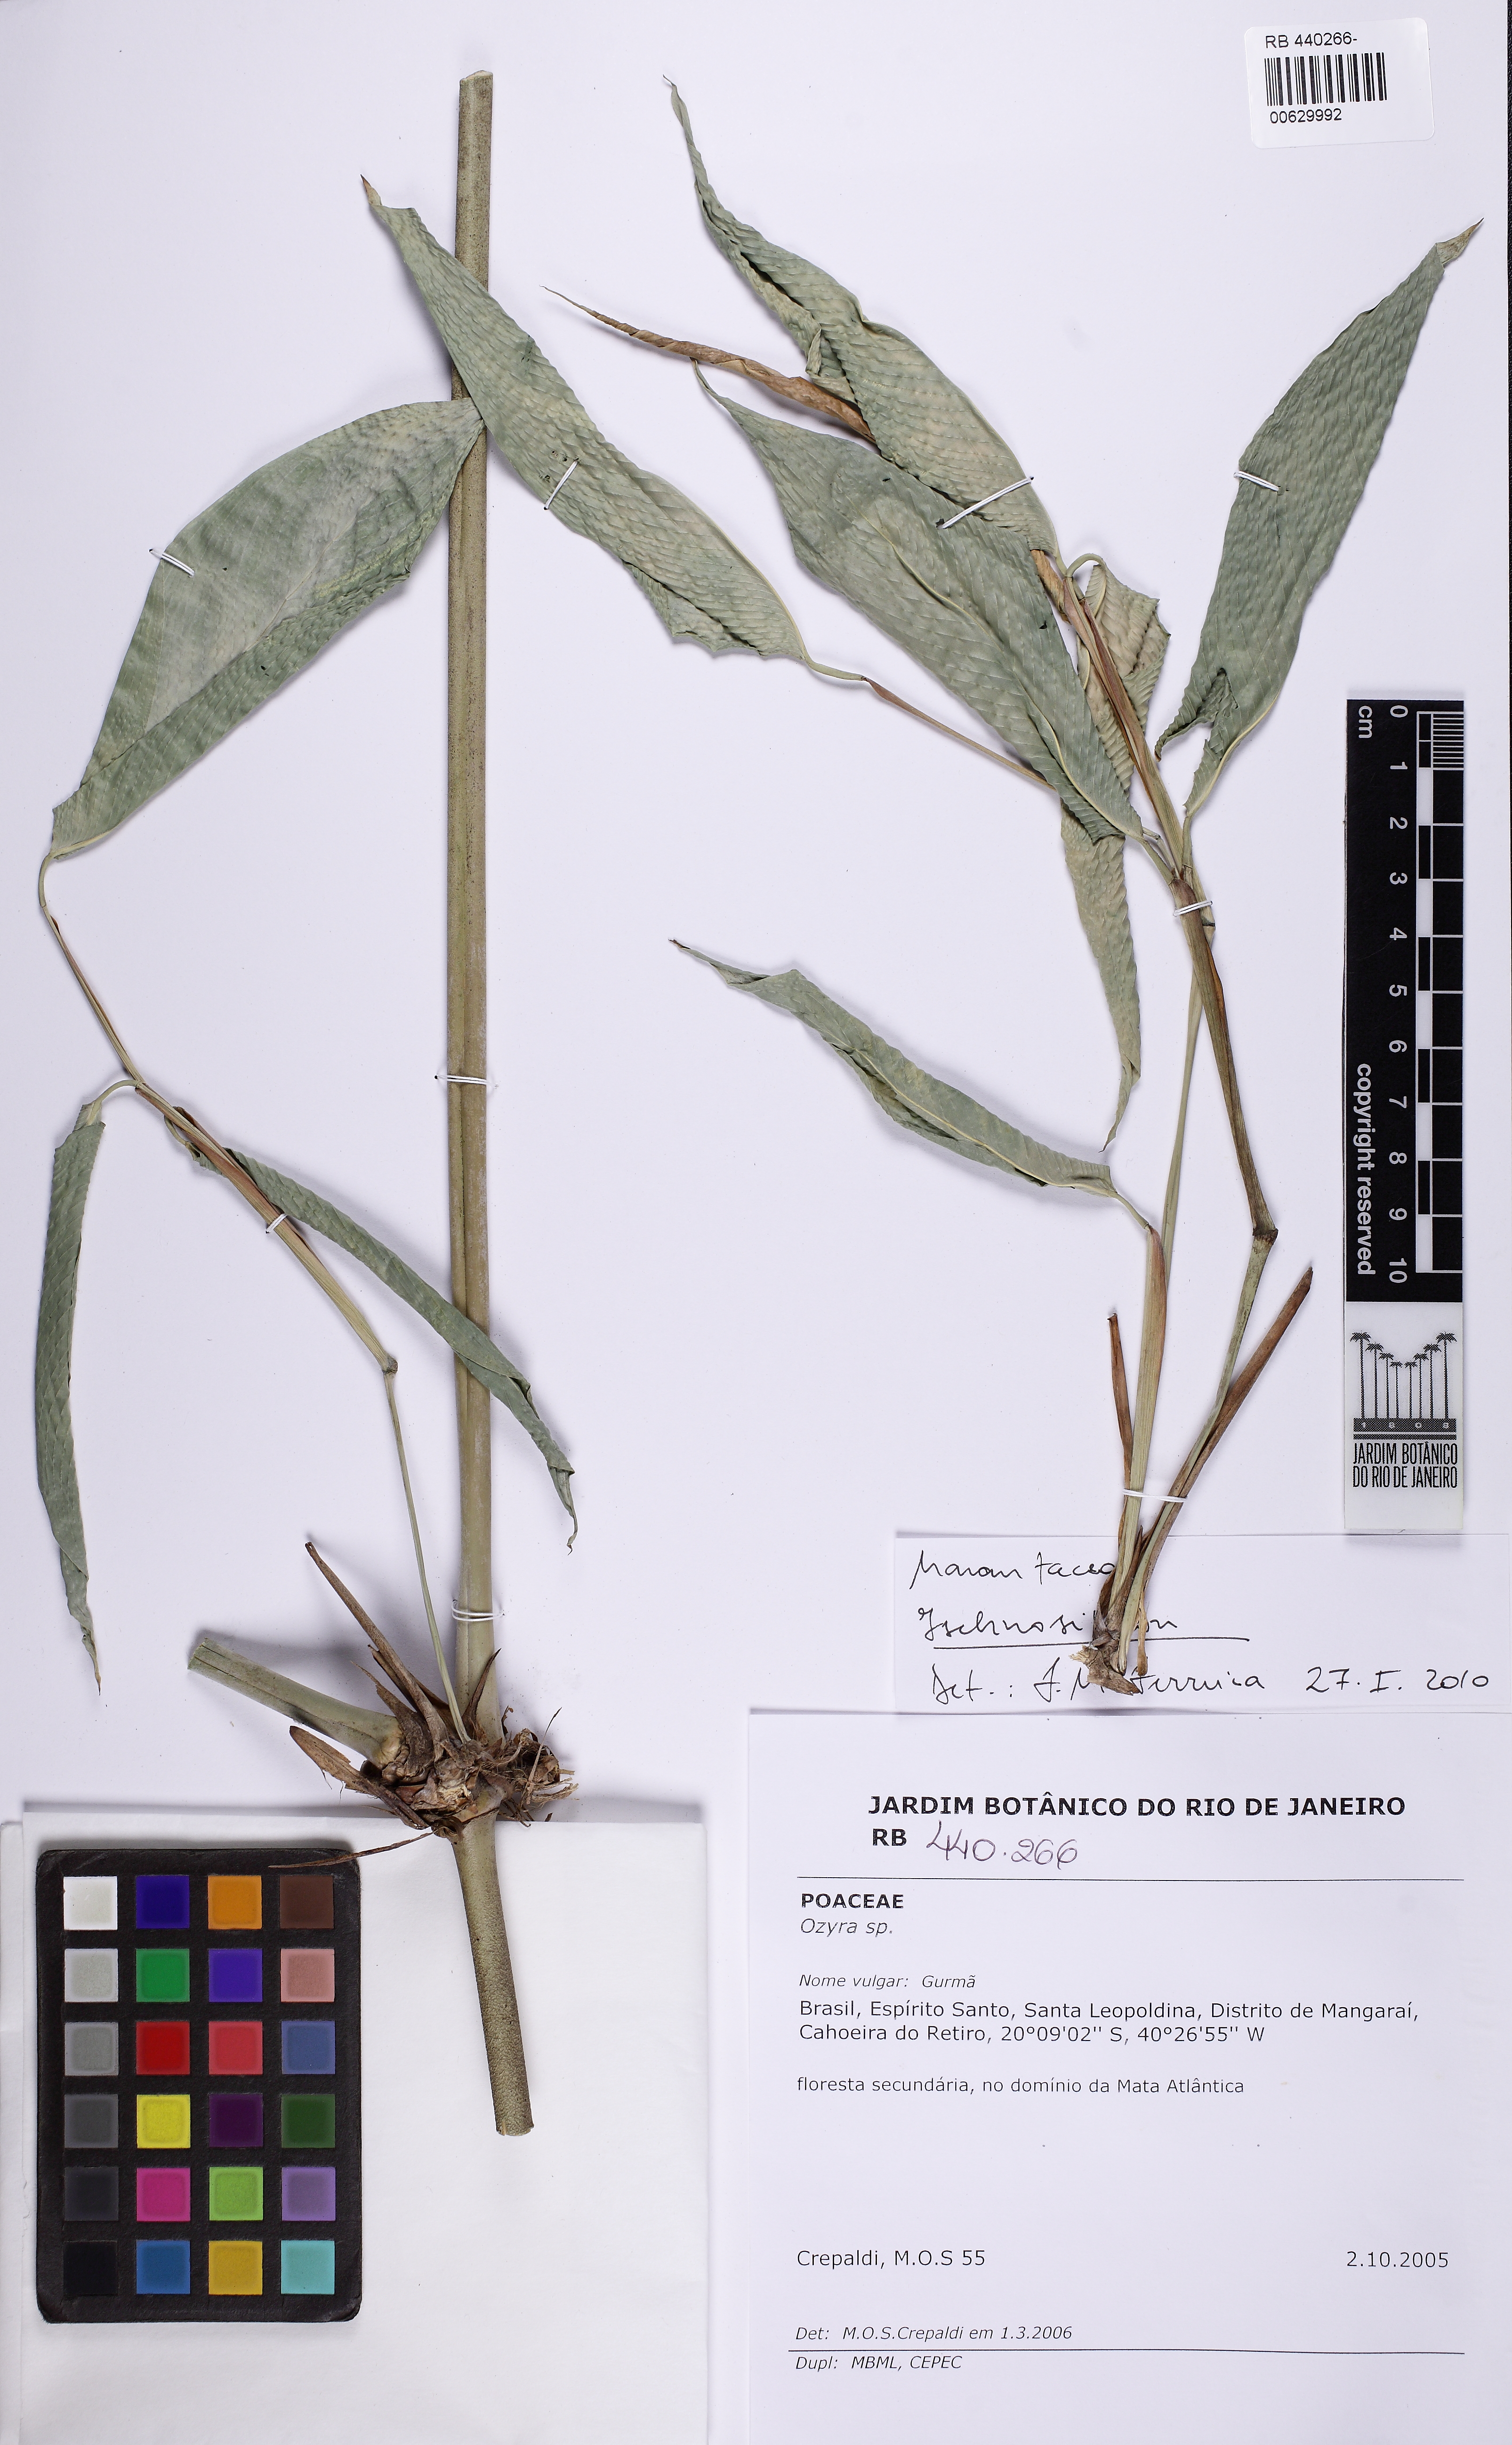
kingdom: Plantae
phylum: Tracheophyta
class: Liliopsida
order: Zingiberales
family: Marantaceae
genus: Ischnosiphon
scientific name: Ischnosiphon
